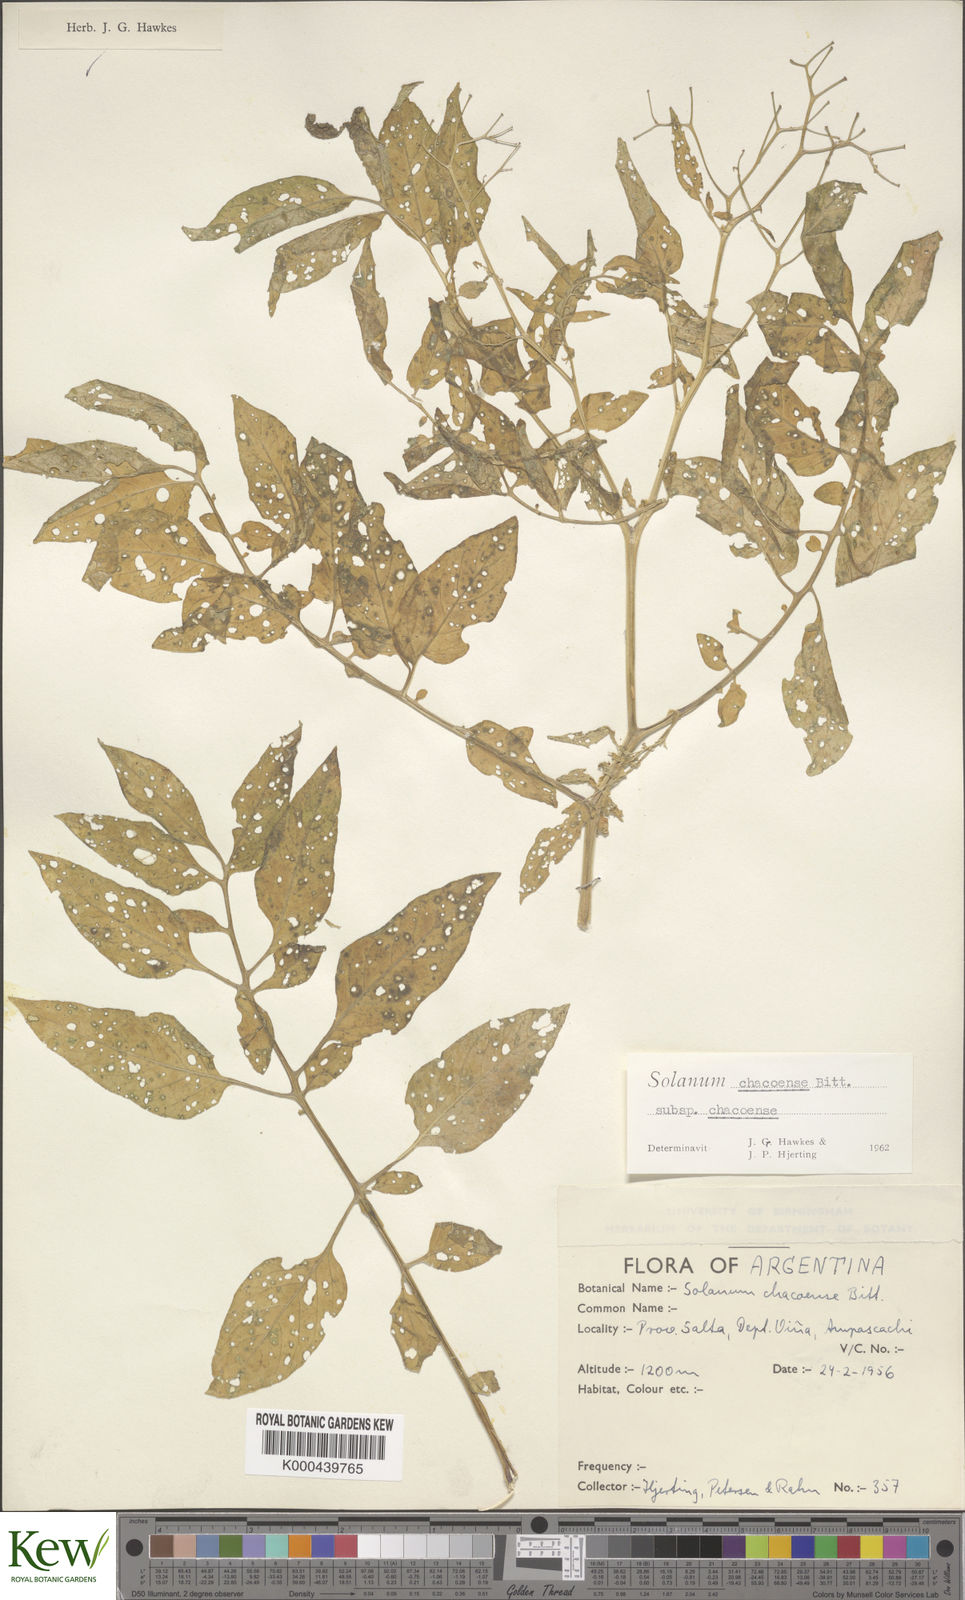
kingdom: Plantae
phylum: Tracheophyta
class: Magnoliopsida
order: Solanales
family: Solanaceae
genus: Solanum
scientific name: Solanum chacoense
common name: Chaco potato
